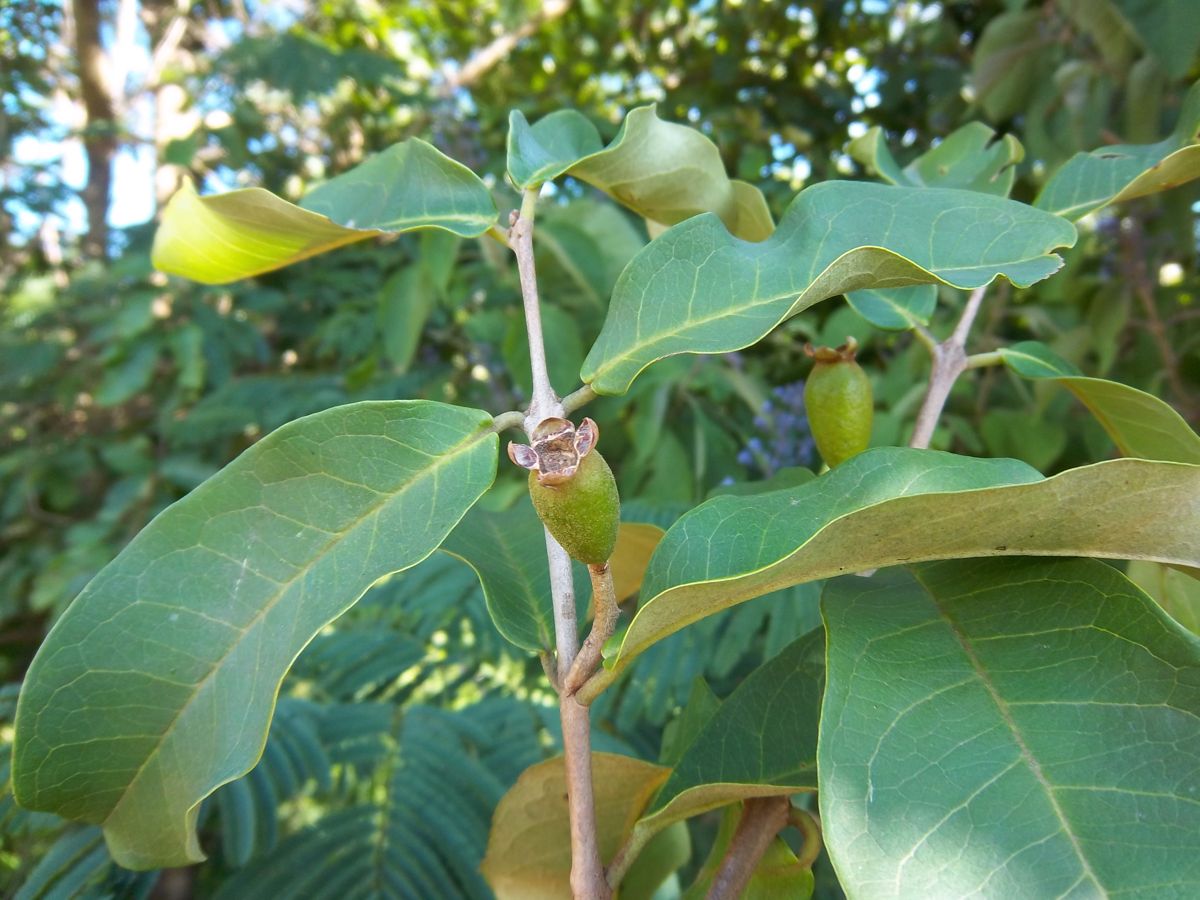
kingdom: Plantae
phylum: Tracheophyta
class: Magnoliopsida
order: Myrtales
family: Myrtaceae
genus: Eugenia
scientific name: Eugenia salamensis
